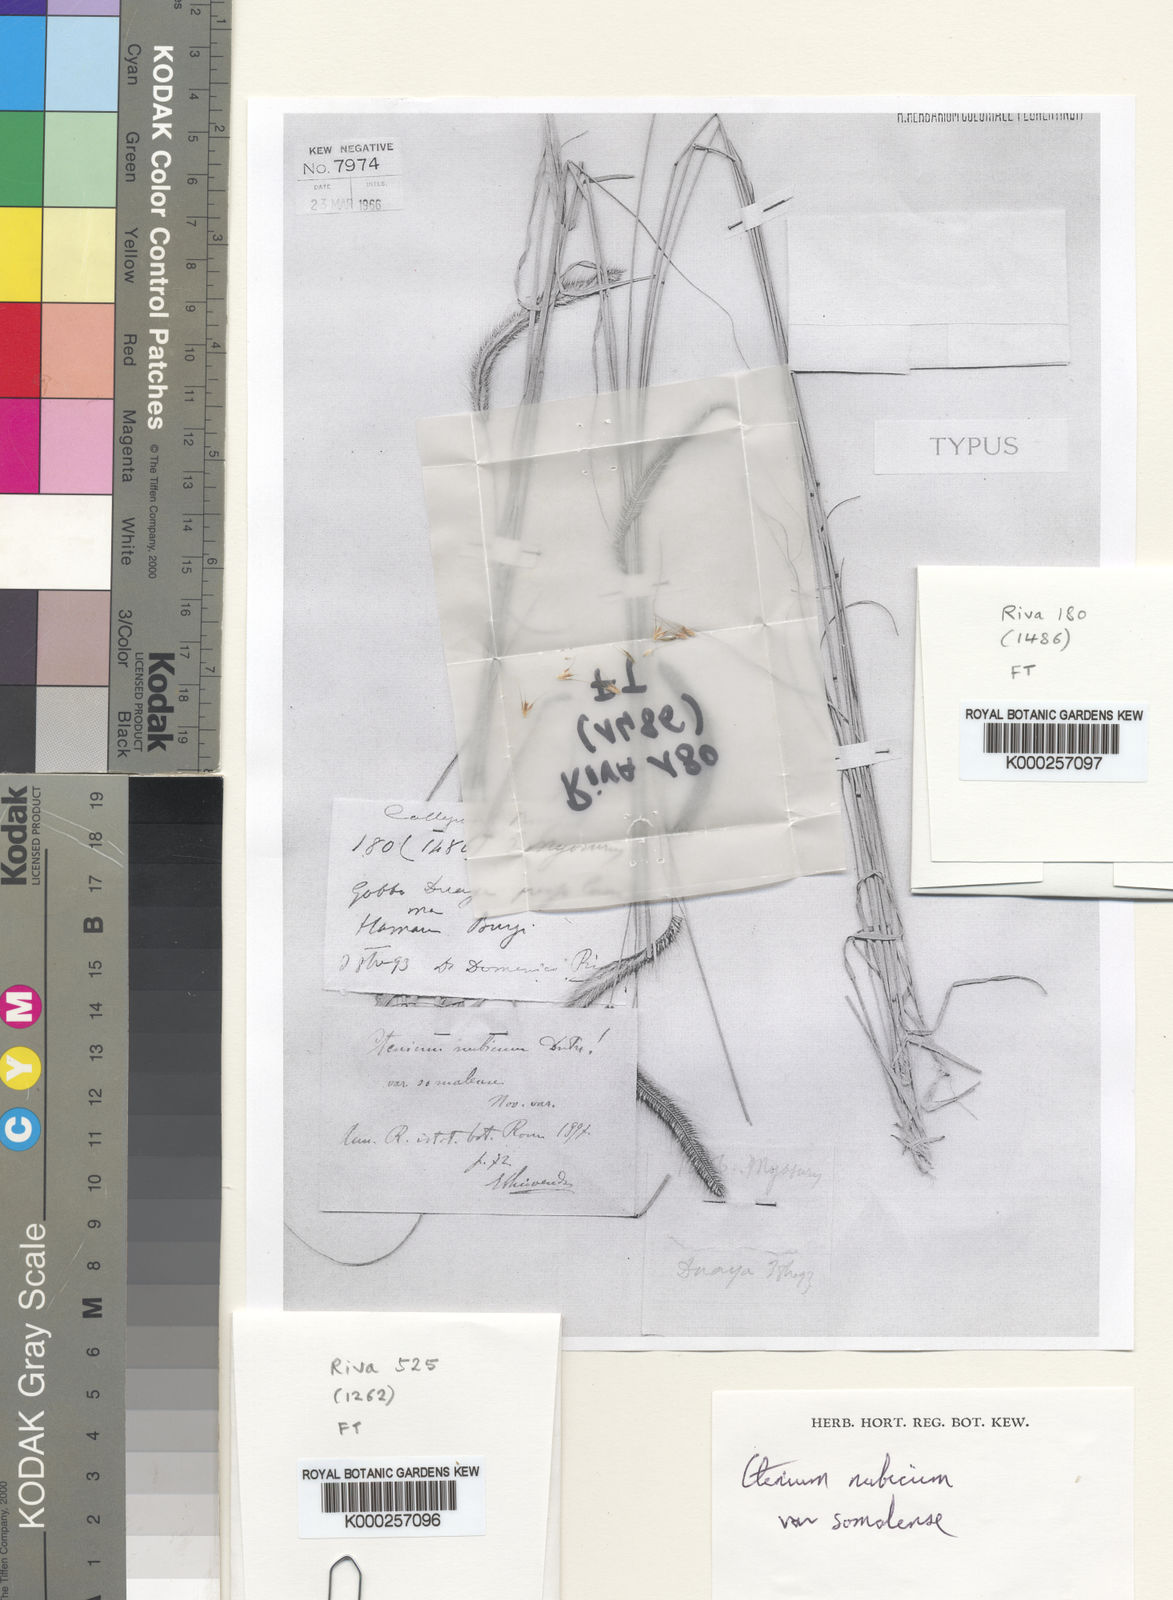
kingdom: Plantae
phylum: Tracheophyta
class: Liliopsida
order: Poales
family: Poaceae
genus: Ctenium
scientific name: Ctenium concinnum
